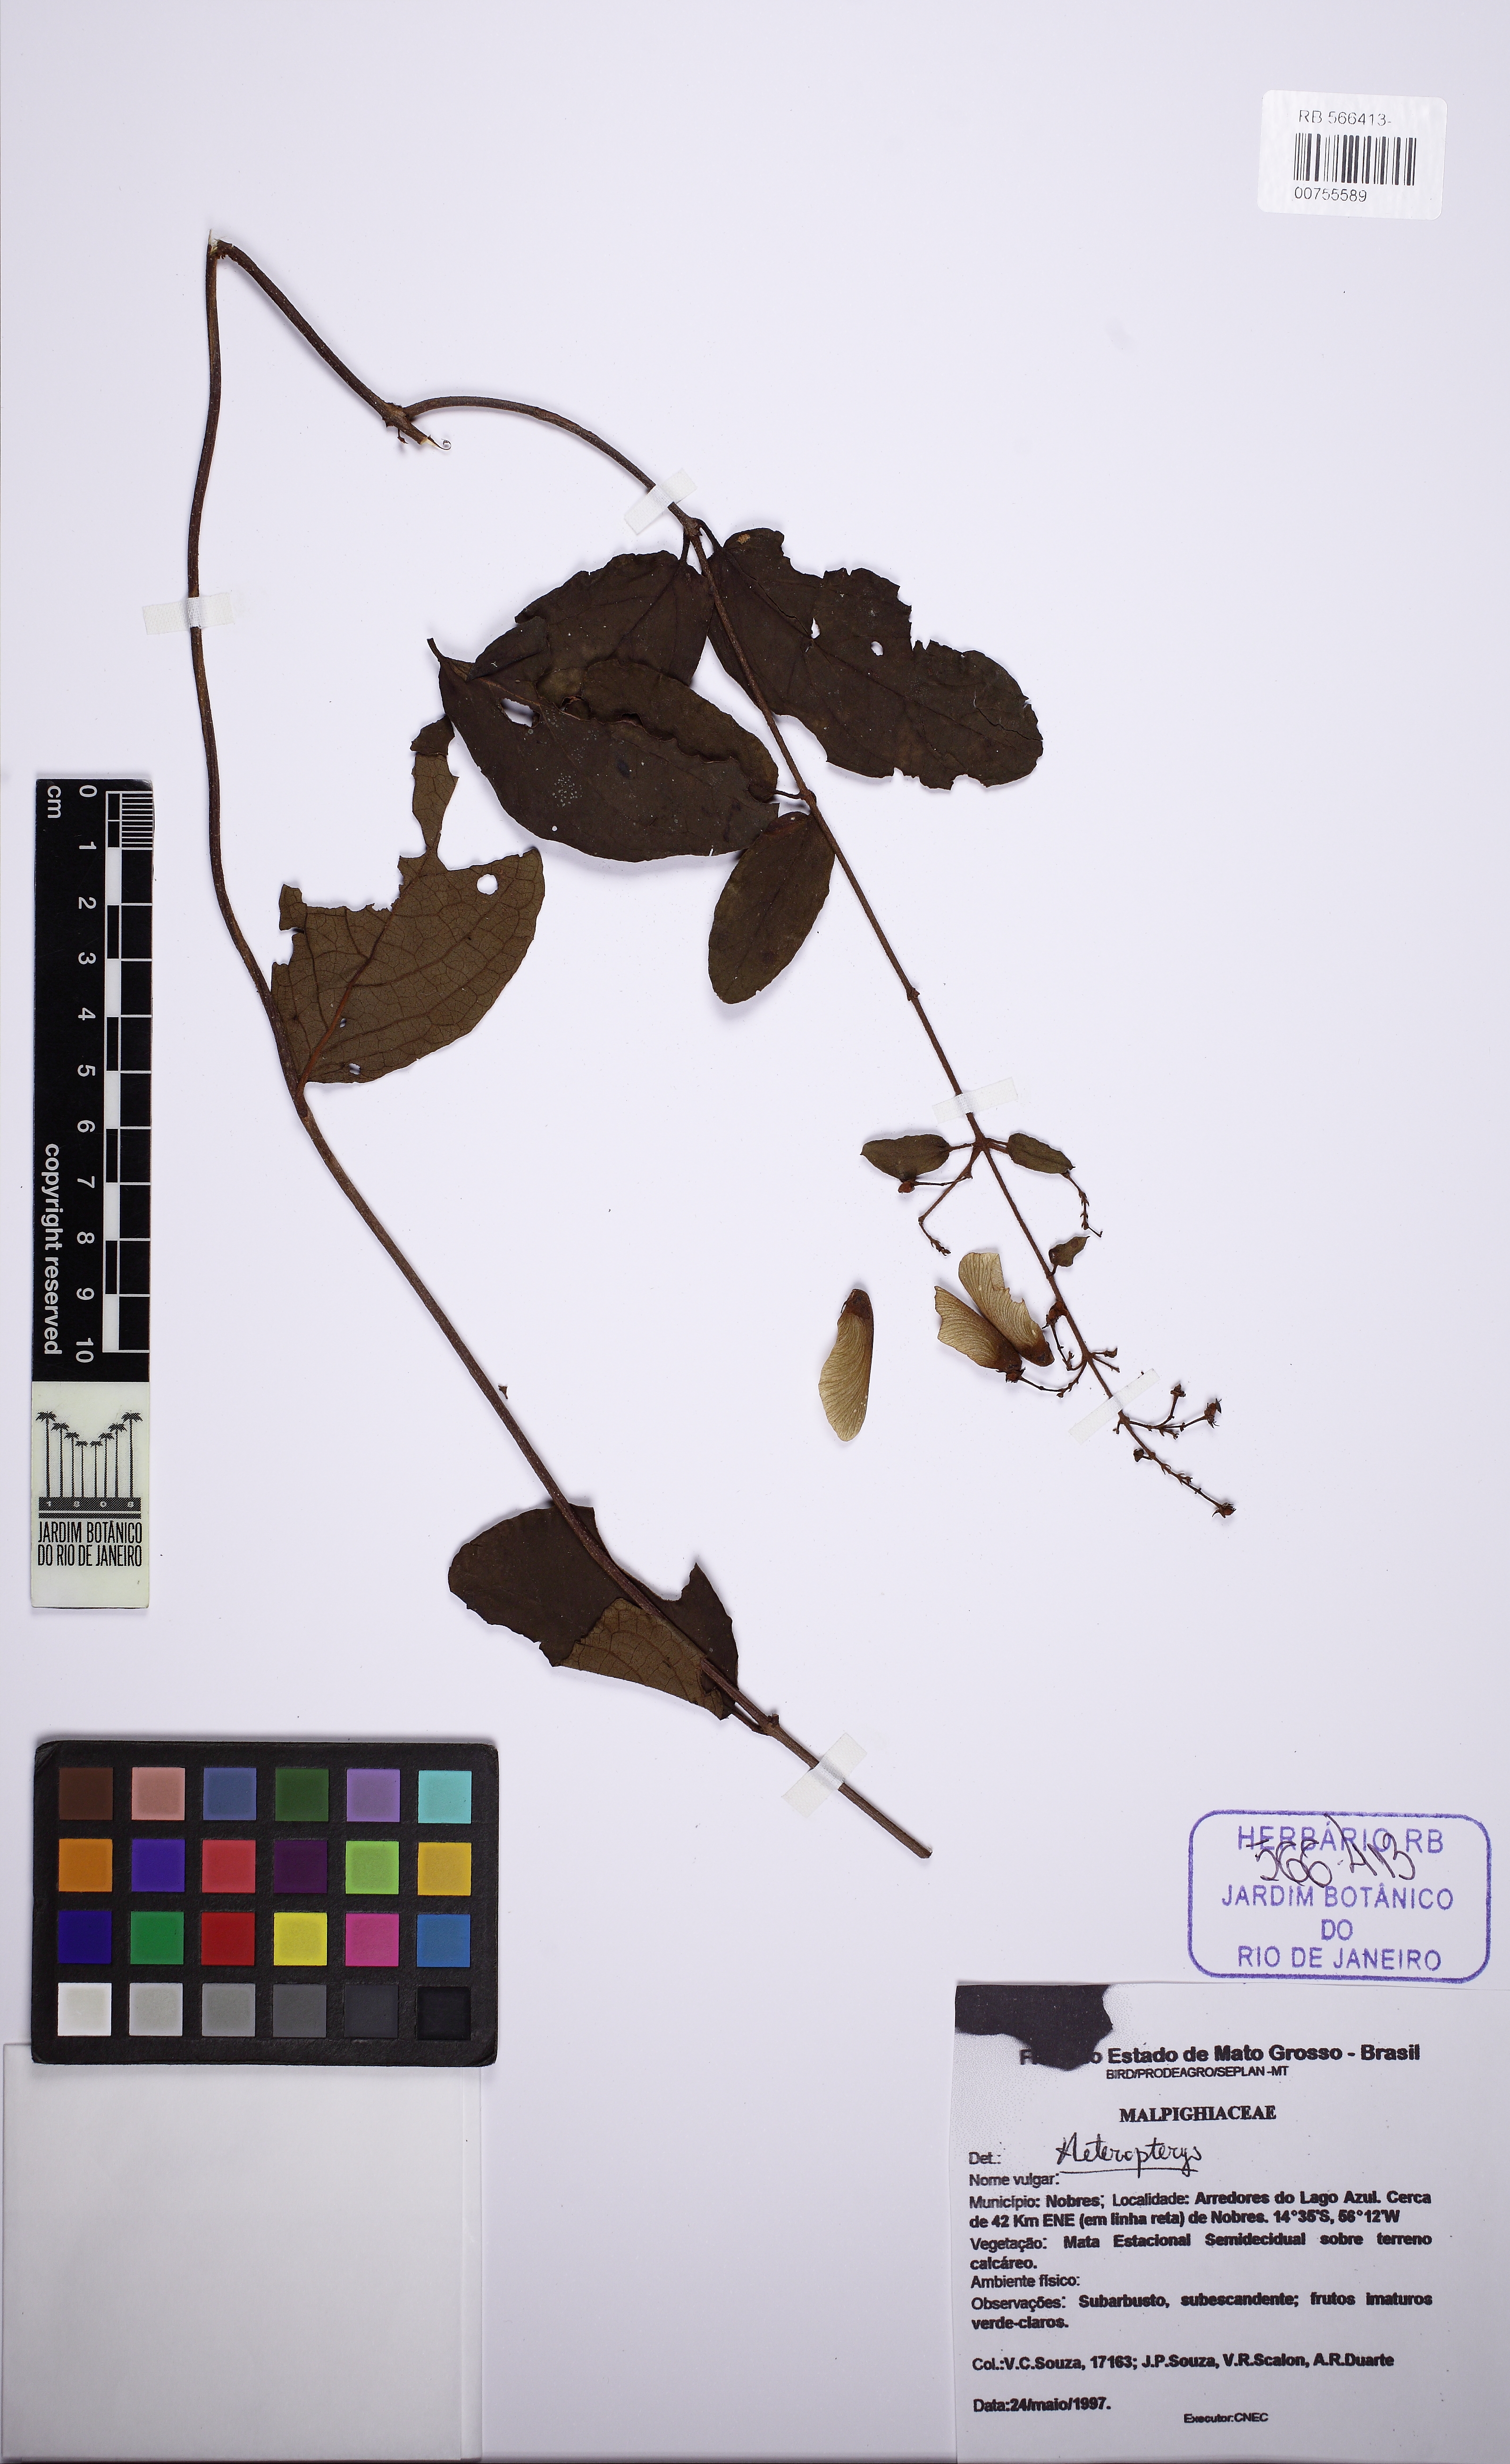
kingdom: Plantae
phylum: Tracheophyta
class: Magnoliopsida
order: Malpighiales
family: Malpighiaceae
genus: Heteropterys
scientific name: Heteropterys
